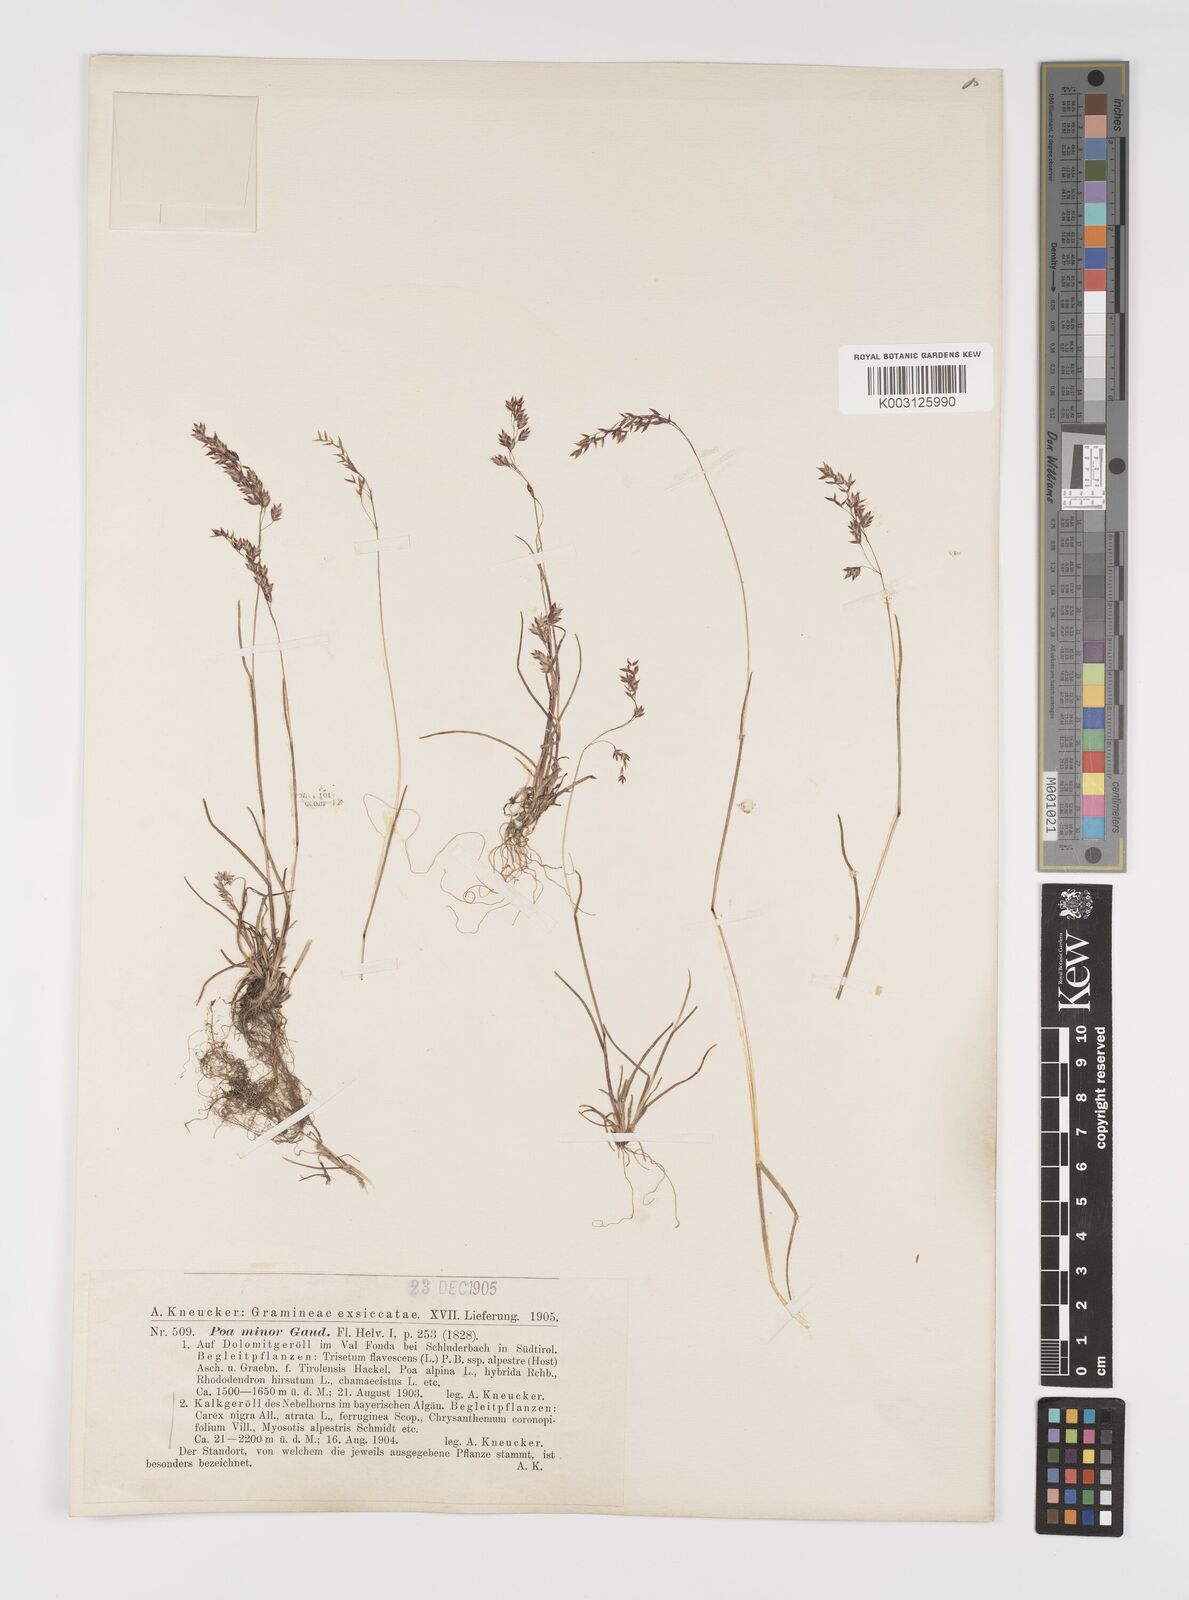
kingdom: Plantae
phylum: Tracheophyta
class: Liliopsida
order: Poales
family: Poaceae
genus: Poa
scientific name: Poa minor
